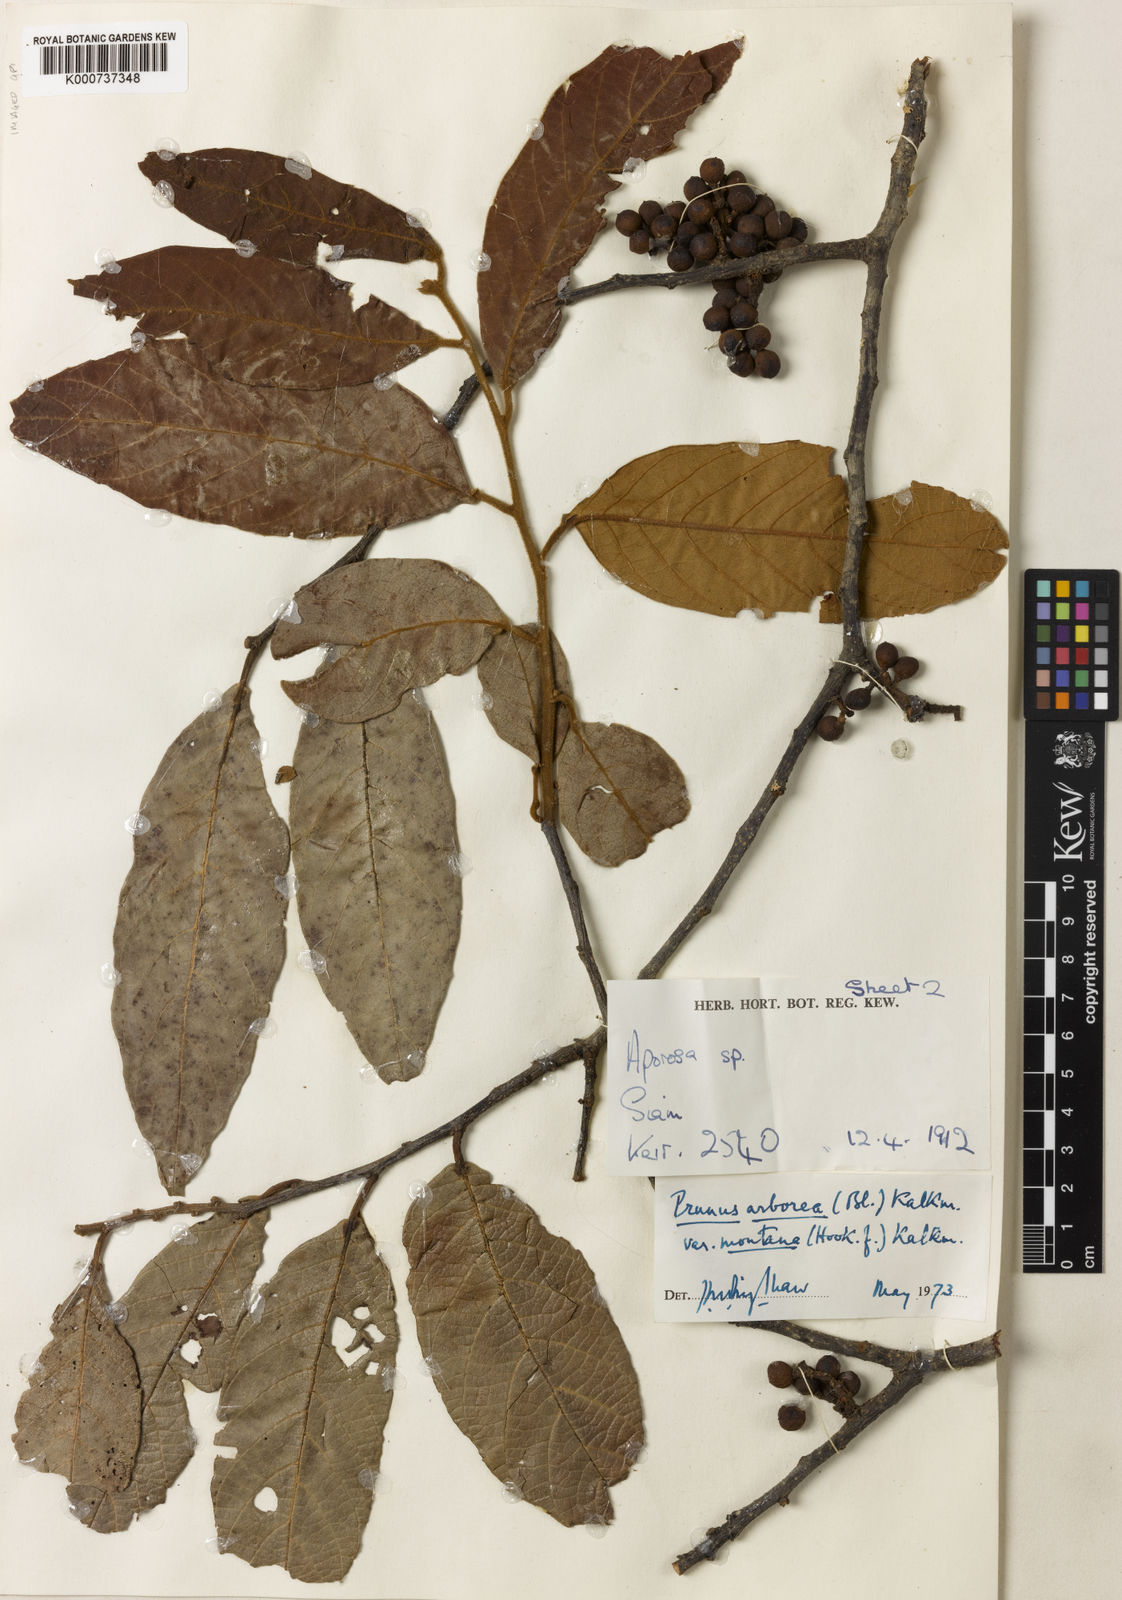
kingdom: Plantae
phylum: Tracheophyta
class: Magnoliopsida
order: Rosales
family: Rosaceae
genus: Prunus
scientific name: Prunus arborea
